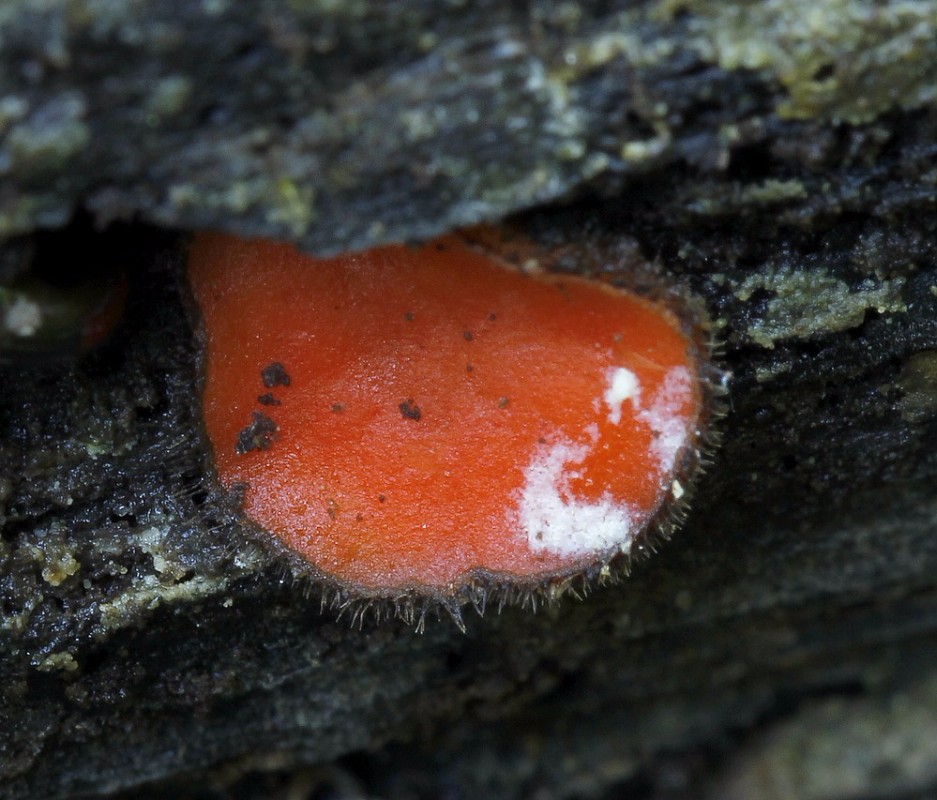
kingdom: Fungi
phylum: Ascomycota
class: Pezizomycetes
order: Pezizales
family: Pyronemataceae
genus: Scutellinia
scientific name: Scutellinia
